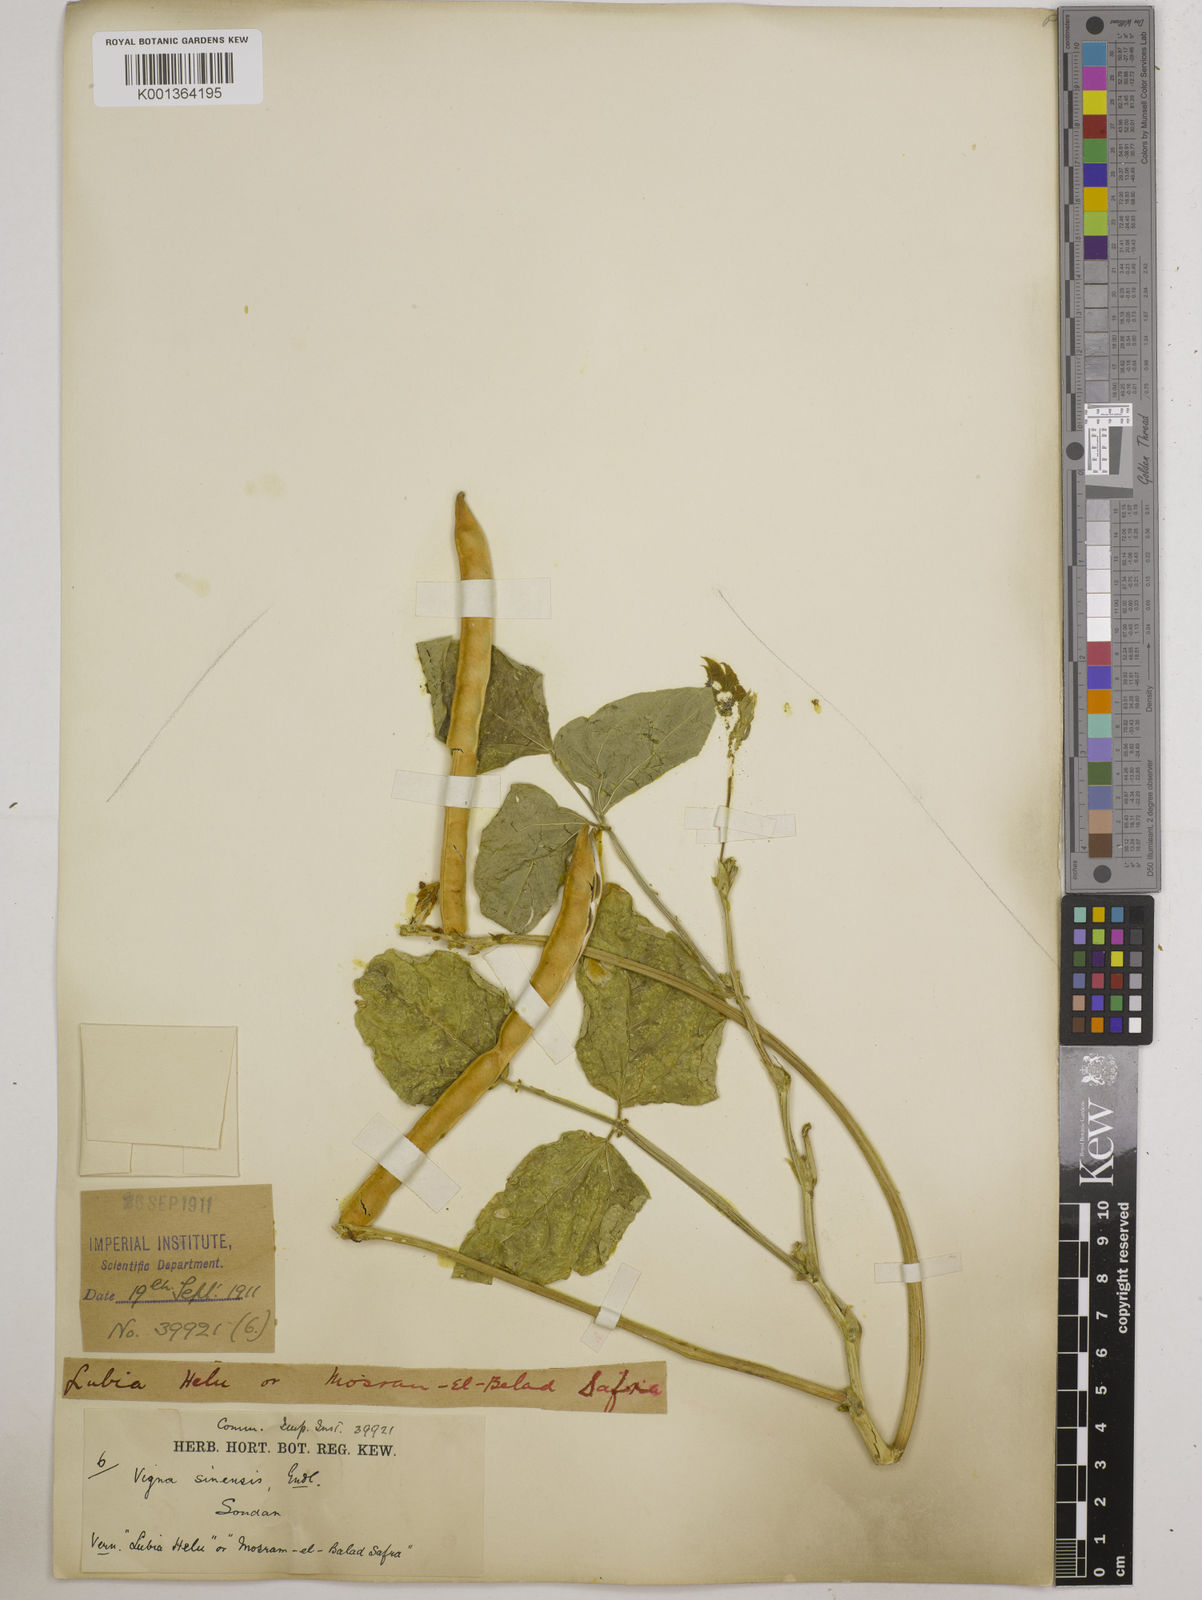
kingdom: Plantae
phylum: Tracheophyta
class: Magnoliopsida
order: Fabales
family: Fabaceae
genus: Vigna
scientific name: Vigna
